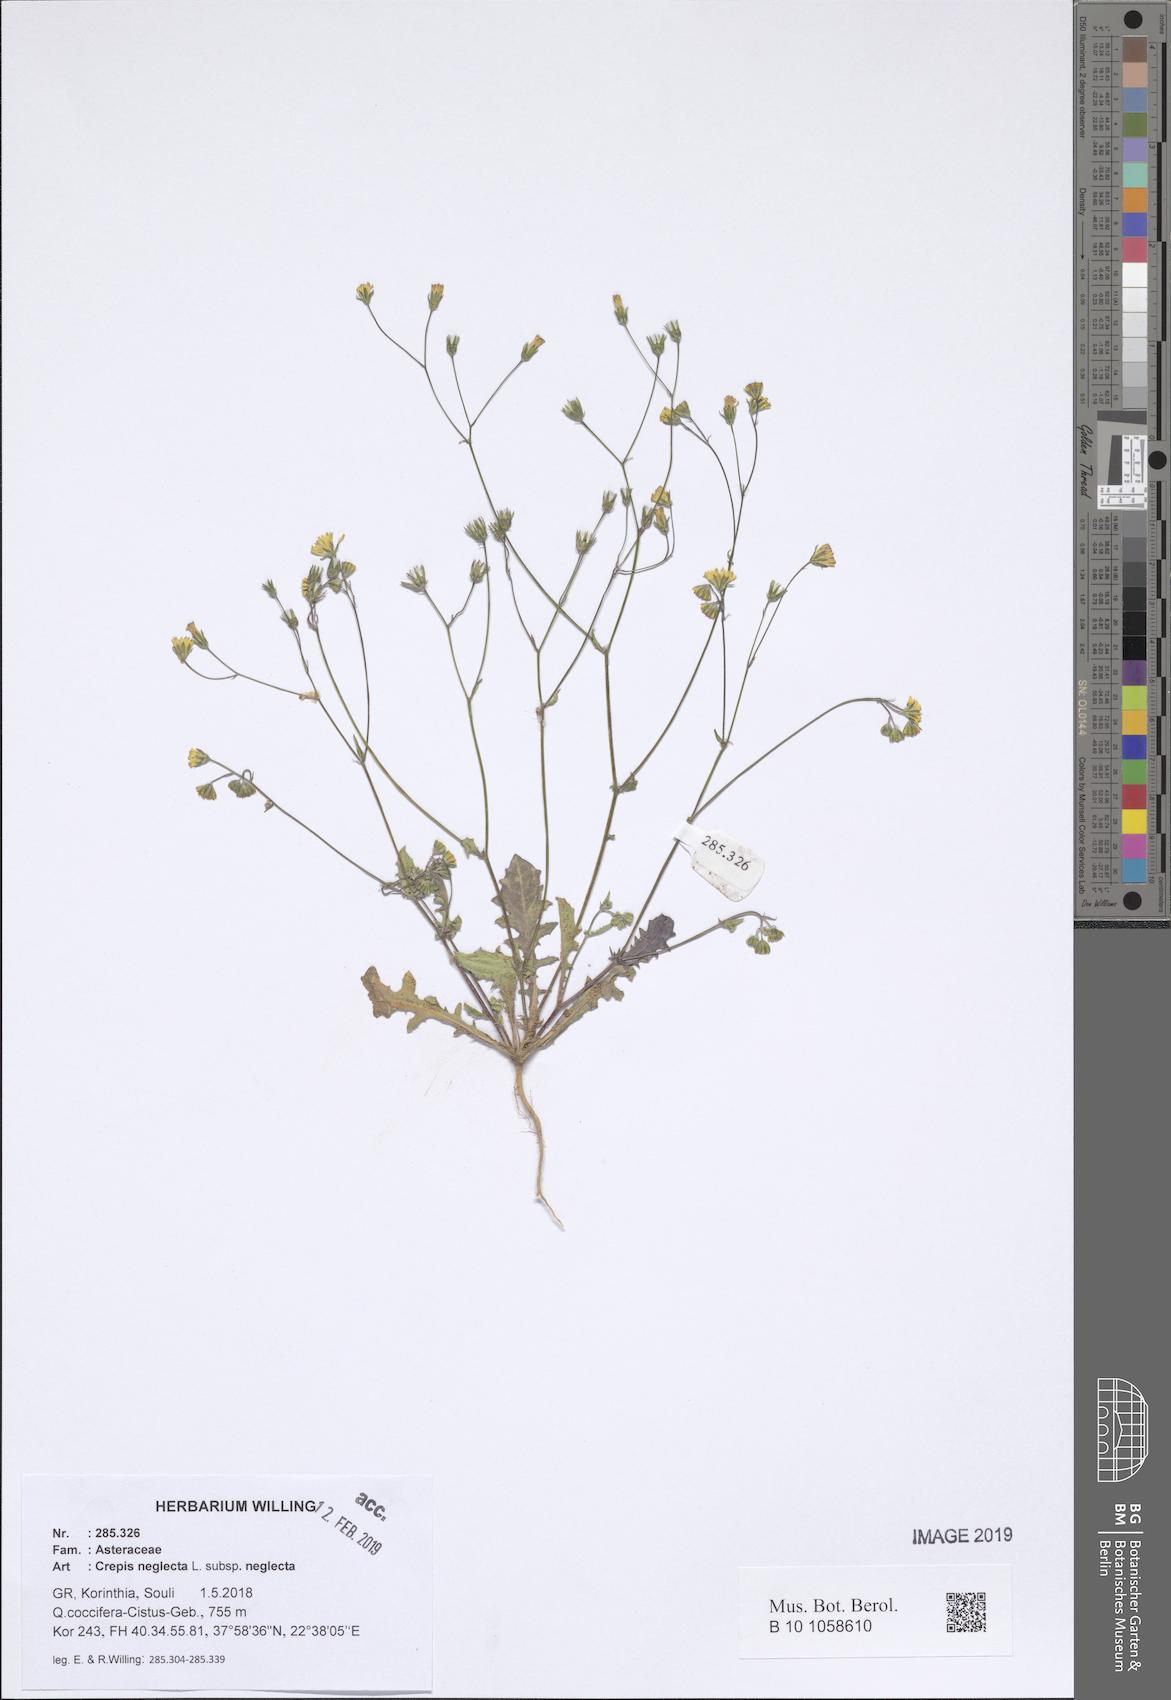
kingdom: Plantae
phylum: Tracheophyta
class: Magnoliopsida
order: Asterales
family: Asteraceae
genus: Crepis
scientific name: Crepis neglecta
